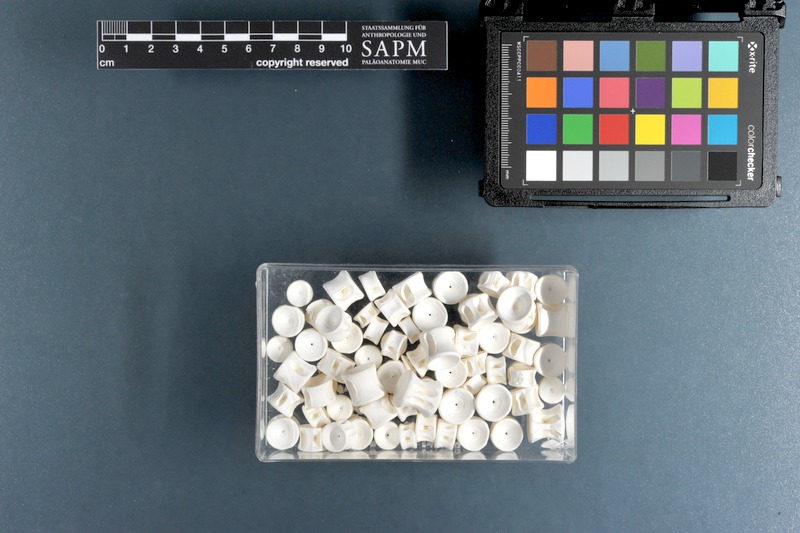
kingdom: Animalia
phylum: Chordata
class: Elasmobranchii
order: Carcharhiniformes
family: Triakidae
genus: Galeorhinus
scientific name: Galeorhinus galeus
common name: Tope
